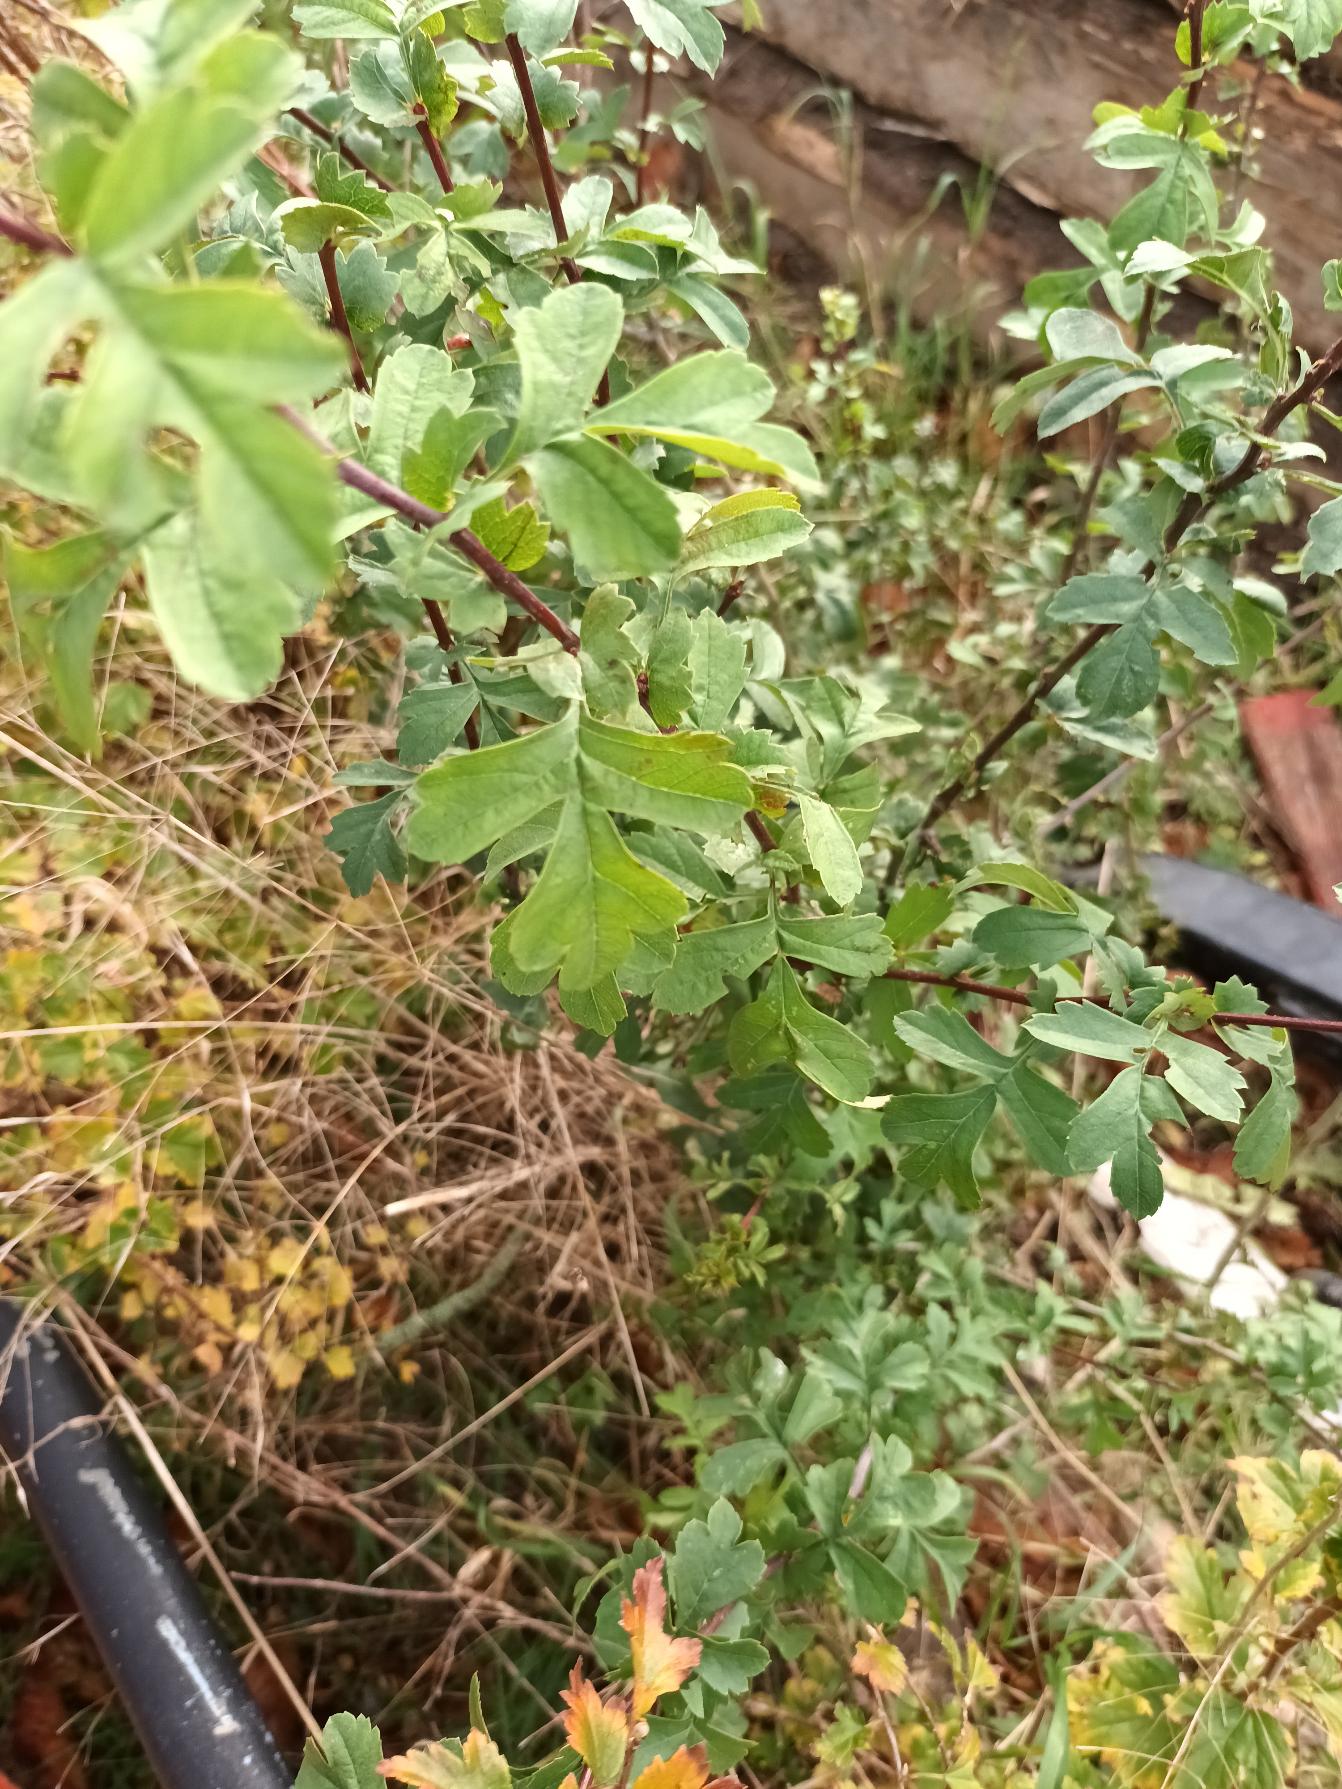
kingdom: Plantae
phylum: Tracheophyta
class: Magnoliopsida
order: Rosales
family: Rosaceae
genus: Crataegus
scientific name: Crataegus monogyna
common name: Engriflet hvidtjørn
